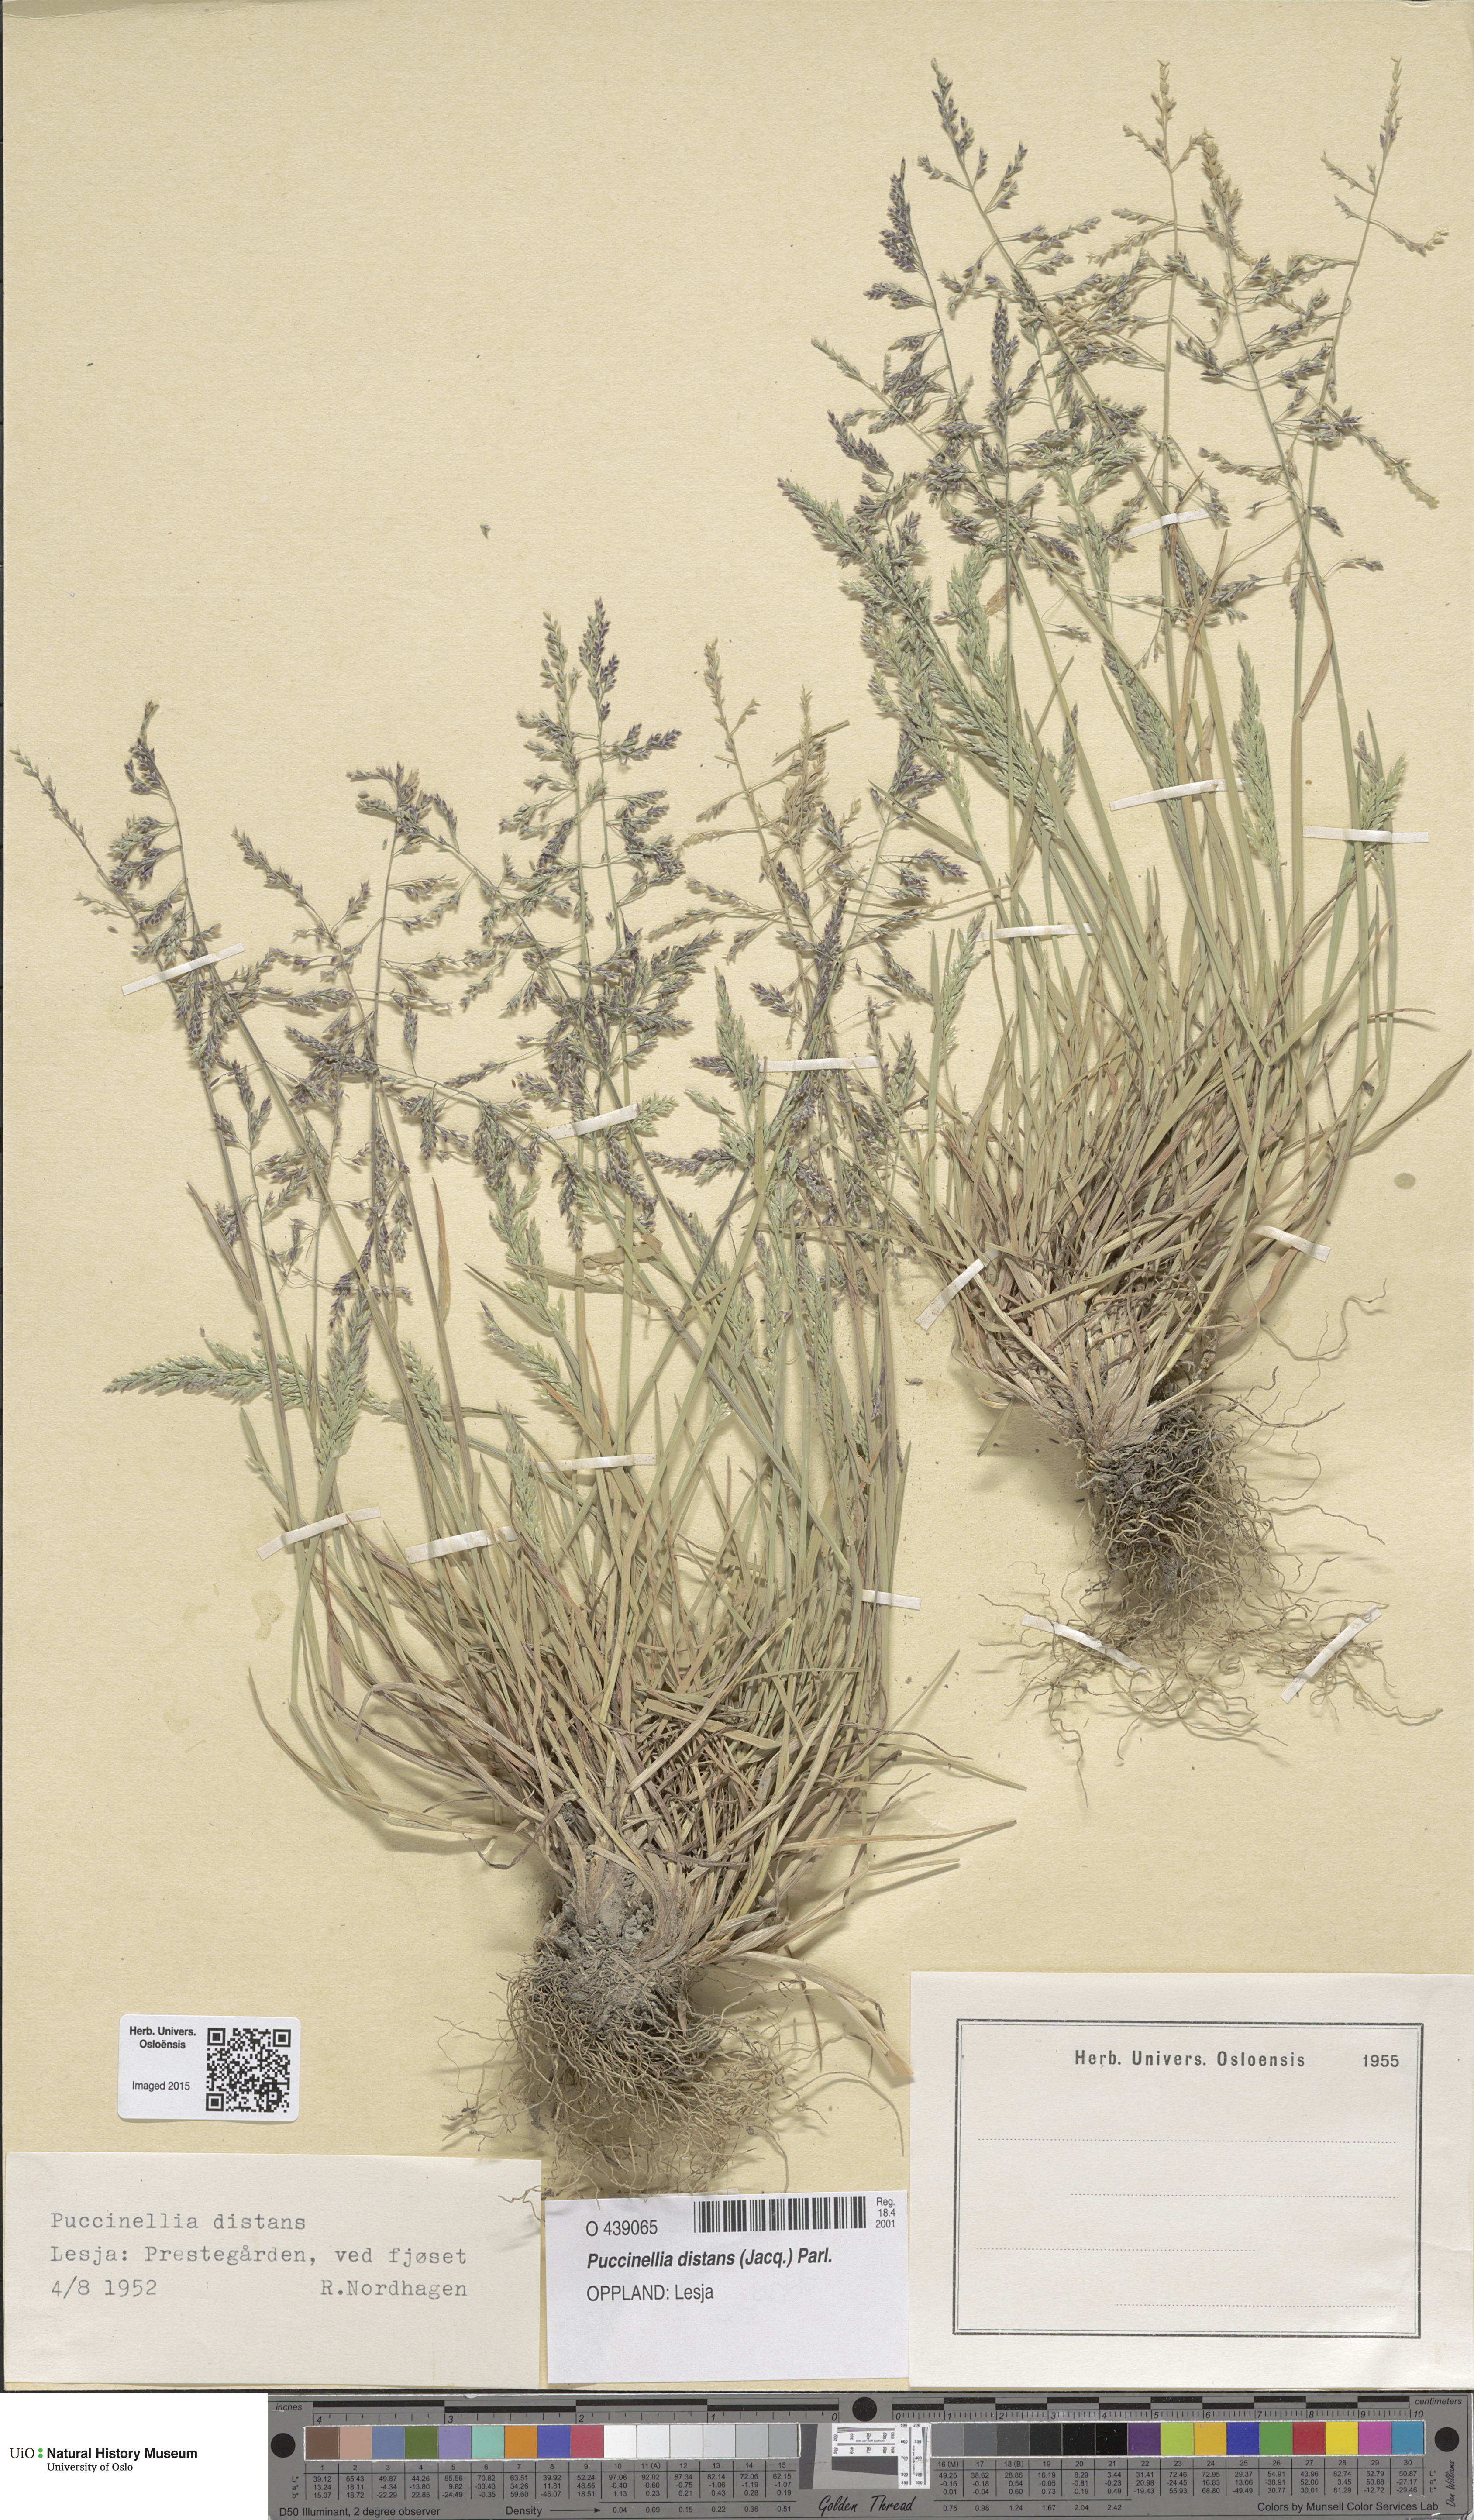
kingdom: Plantae
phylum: Tracheophyta
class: Liliopsida
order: Poales
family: Poaceae
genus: Puccinellia
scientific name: Puccinellia distans
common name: Weeping alkaligrass
